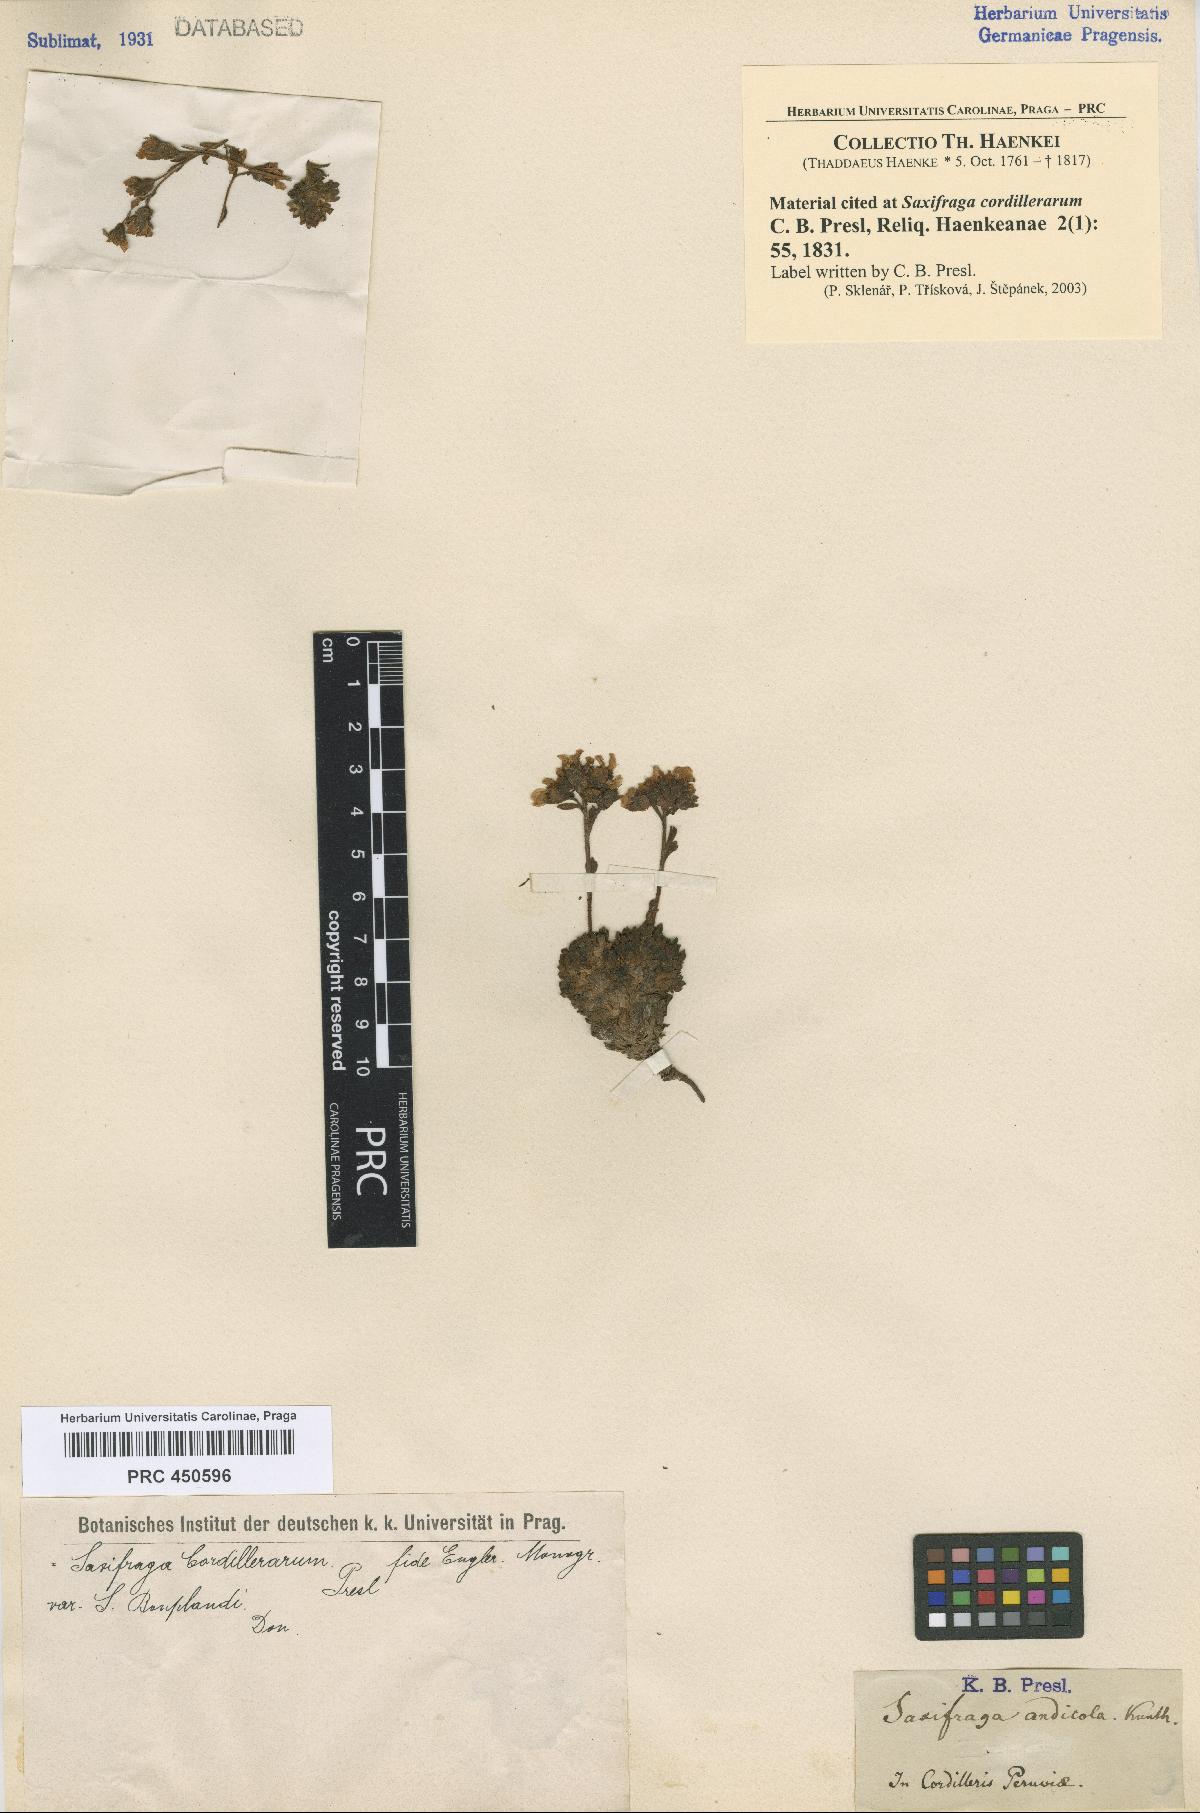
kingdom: Plantae
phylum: Tracheophyta
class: Magnoliopsida
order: Saxifragales
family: Saxifragaceae
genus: Saxifraga
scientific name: Saxifraga magellanica
